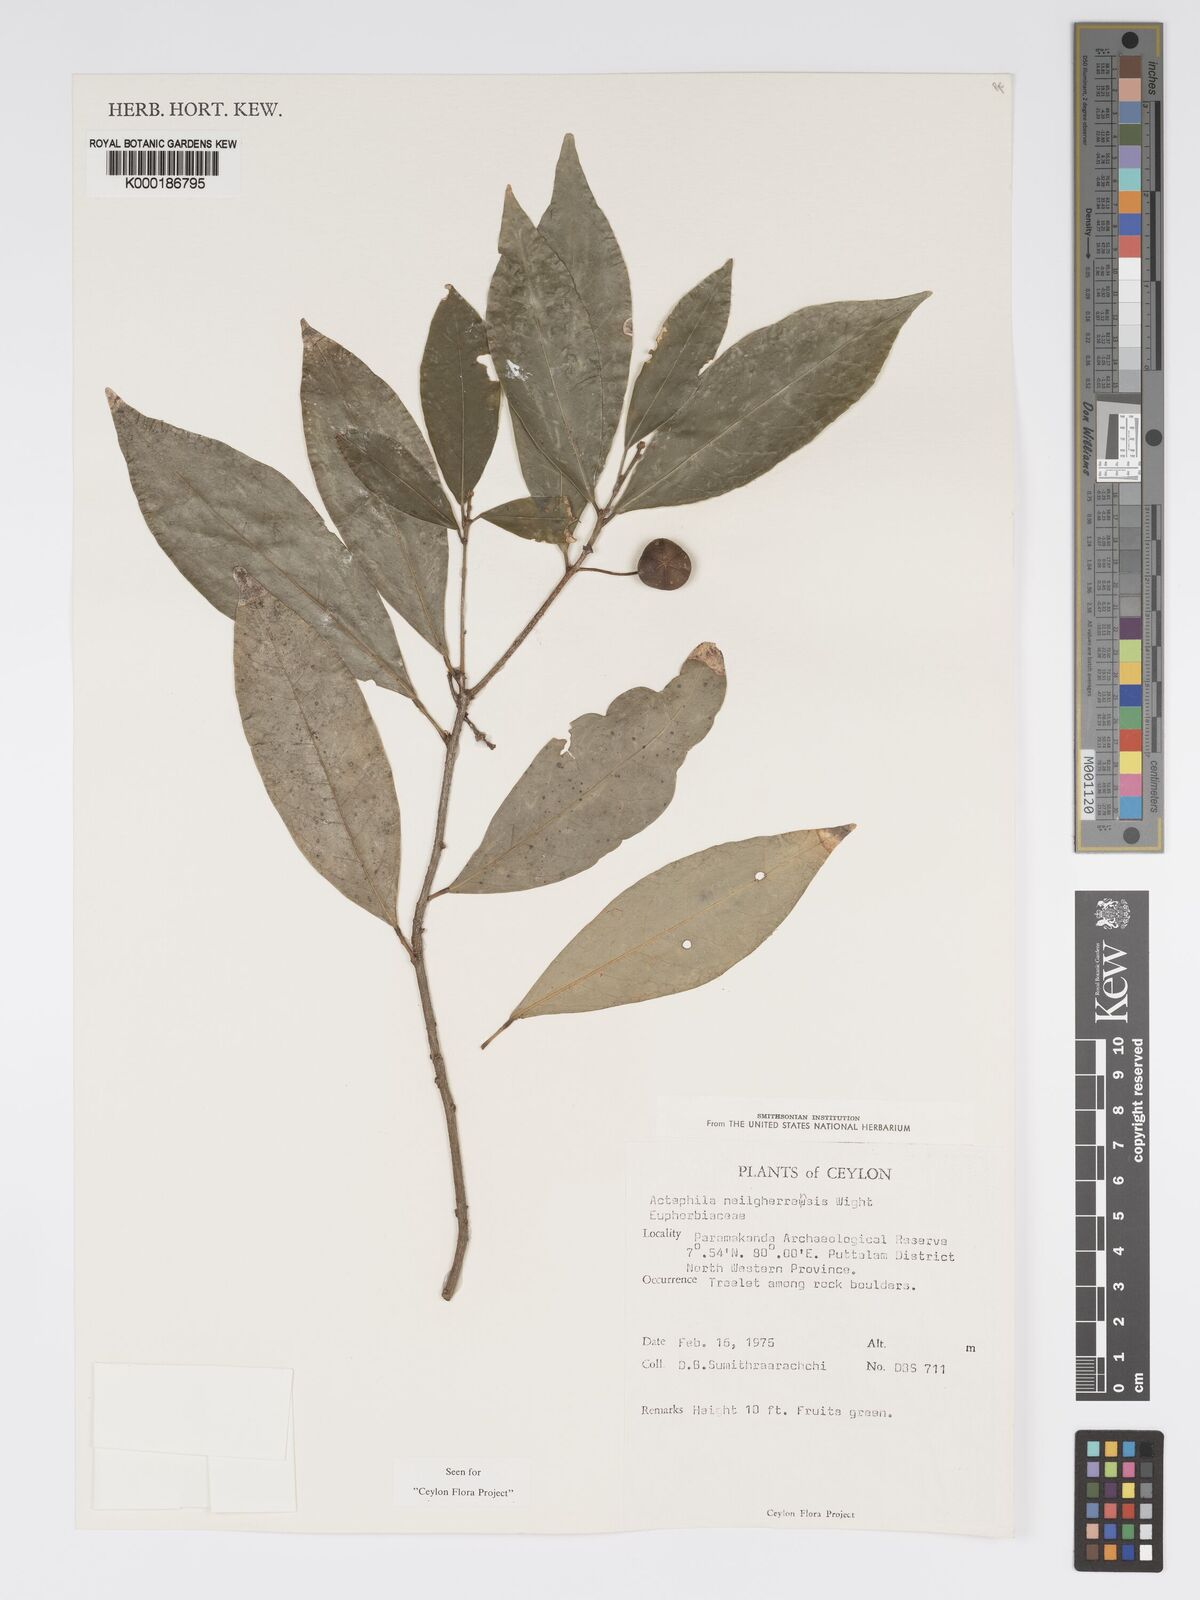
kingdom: Plantae
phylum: Tracheophyta
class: Magnoliopsida
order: Malpighiales
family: Phyllanthaceae
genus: Actephila
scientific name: Actephila excelsa
